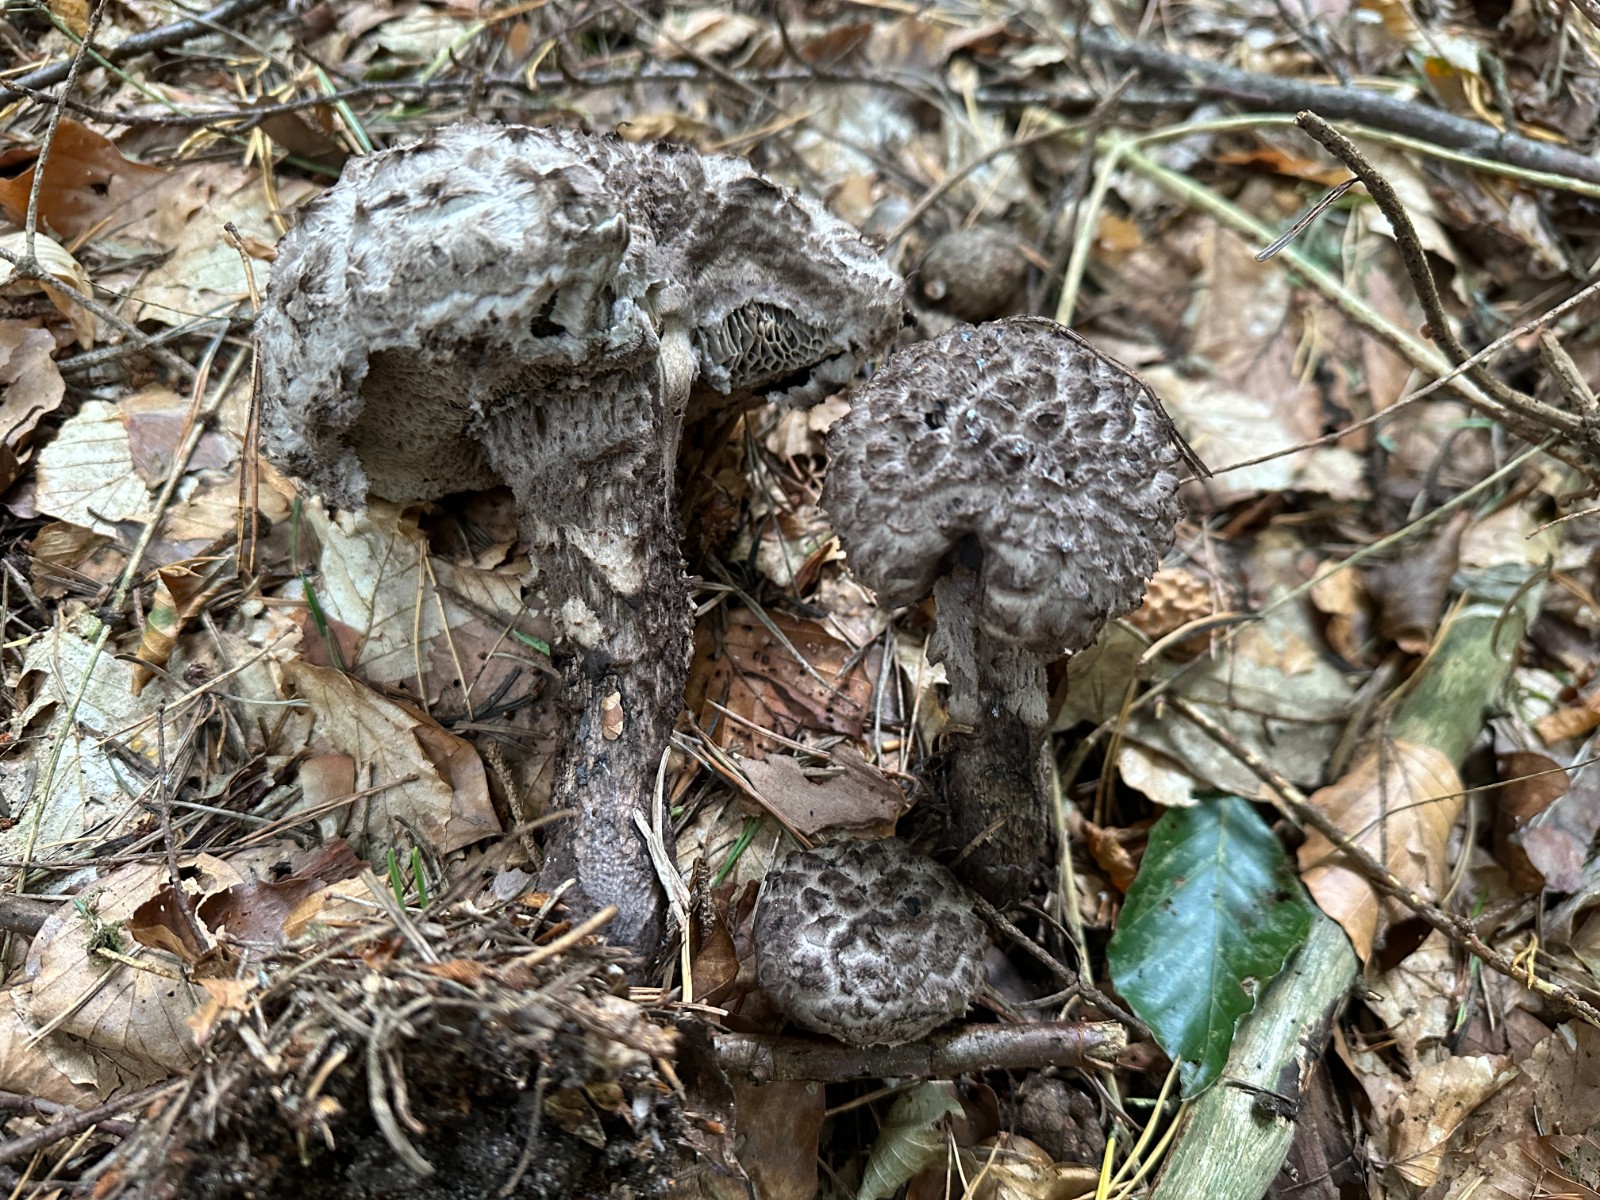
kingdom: Fungi
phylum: Basidiomycota
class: Agaricomycetes
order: Boletales
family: Boletaceae
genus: Strobilomyces
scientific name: Strobilomyces strobilaceus
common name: koglerørhat
